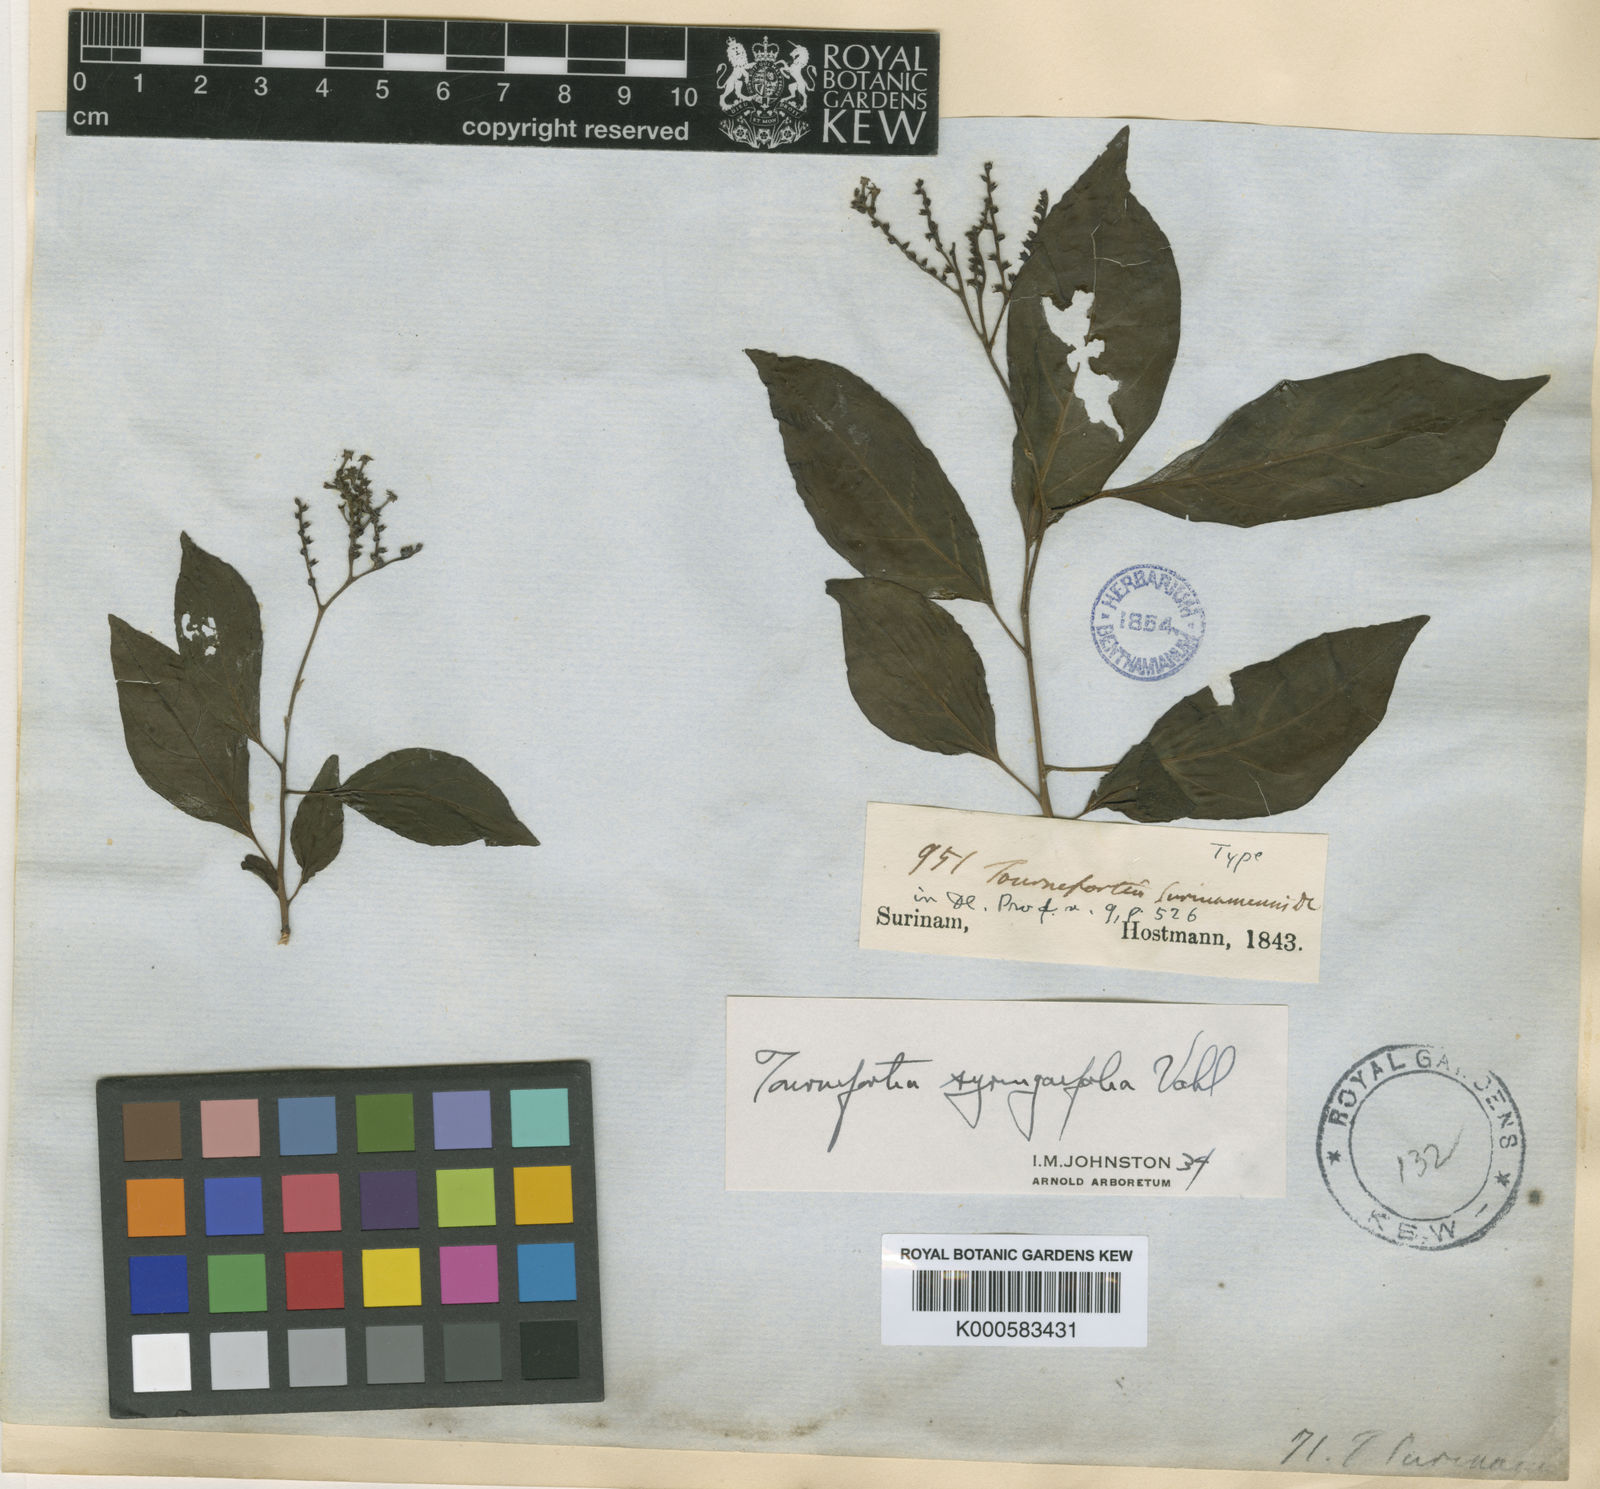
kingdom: Plantae
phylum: Tracheophyta
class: Magnoliopsida
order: Boraginales
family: Heliotropiaceae
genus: Myriopus
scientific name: Myriopus maculatus
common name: Laurel-leaf soldierbush
